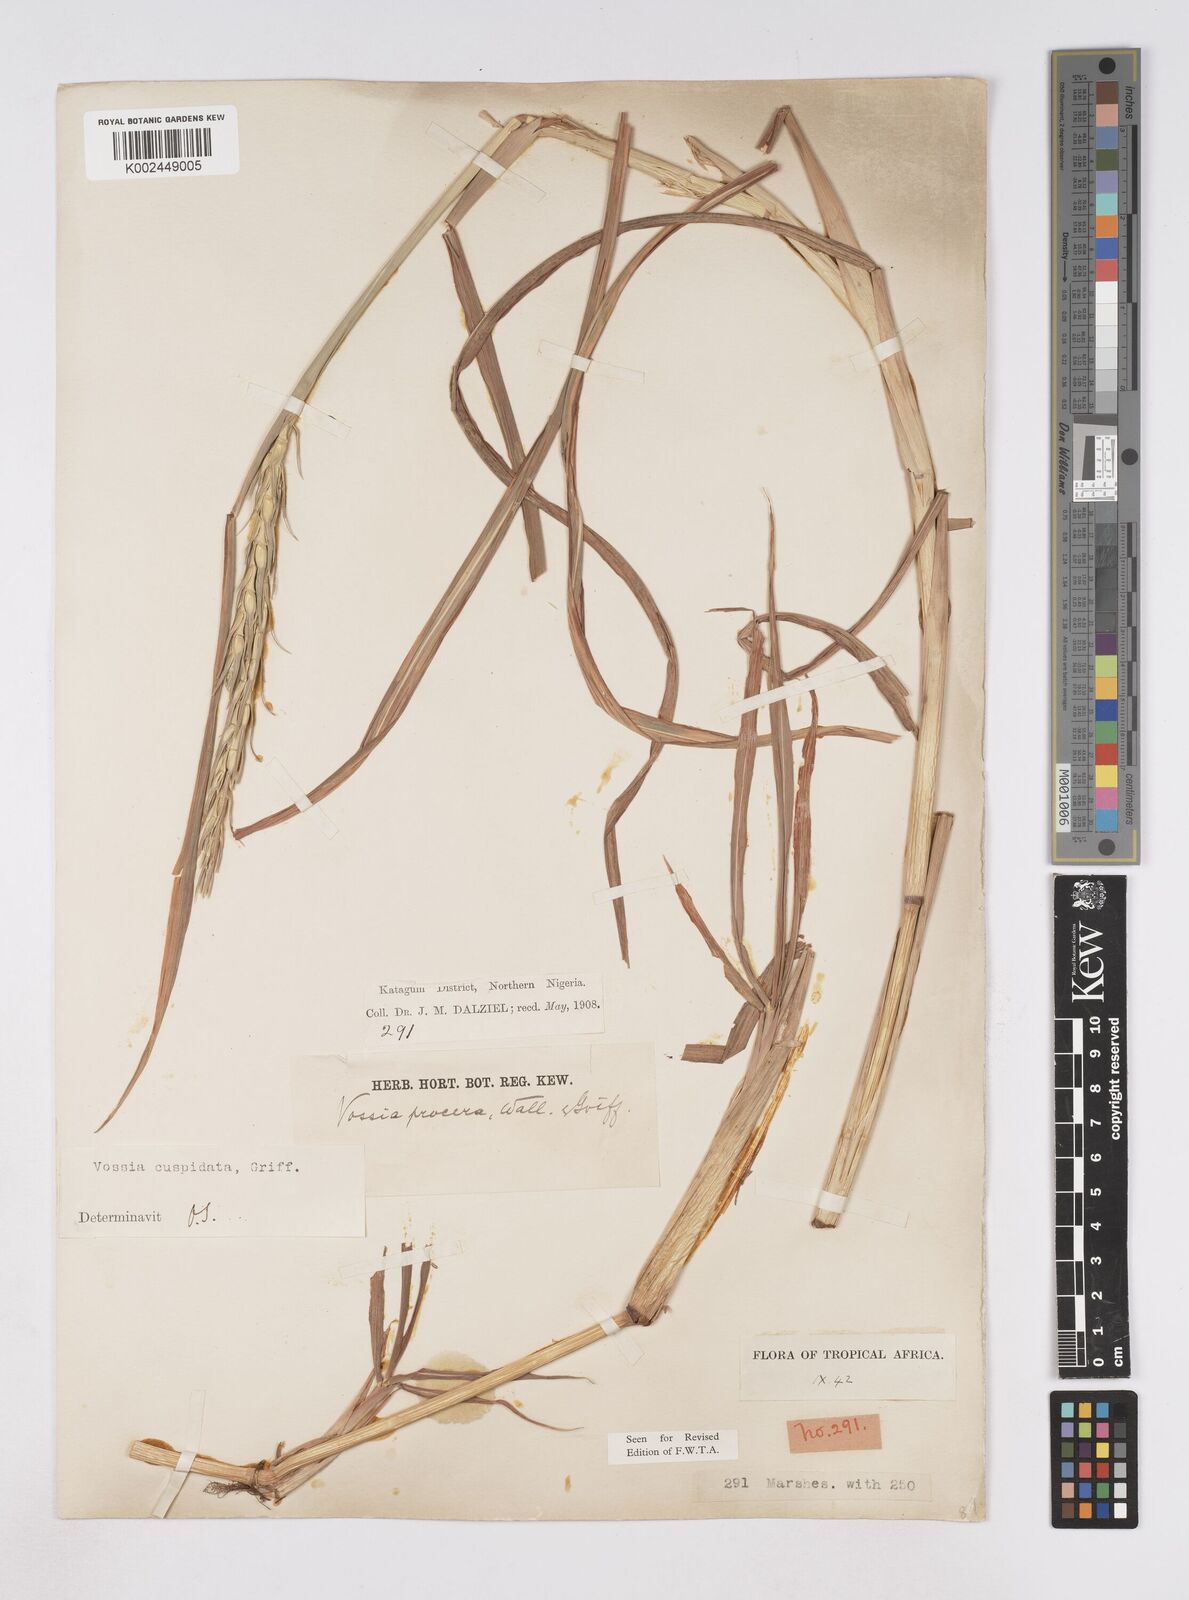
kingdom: Plantae
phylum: Tracheophyta
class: Liliopsida
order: Poales
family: Poaceae
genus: Vossia
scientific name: Vossia cuspidata
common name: Hippo grass
